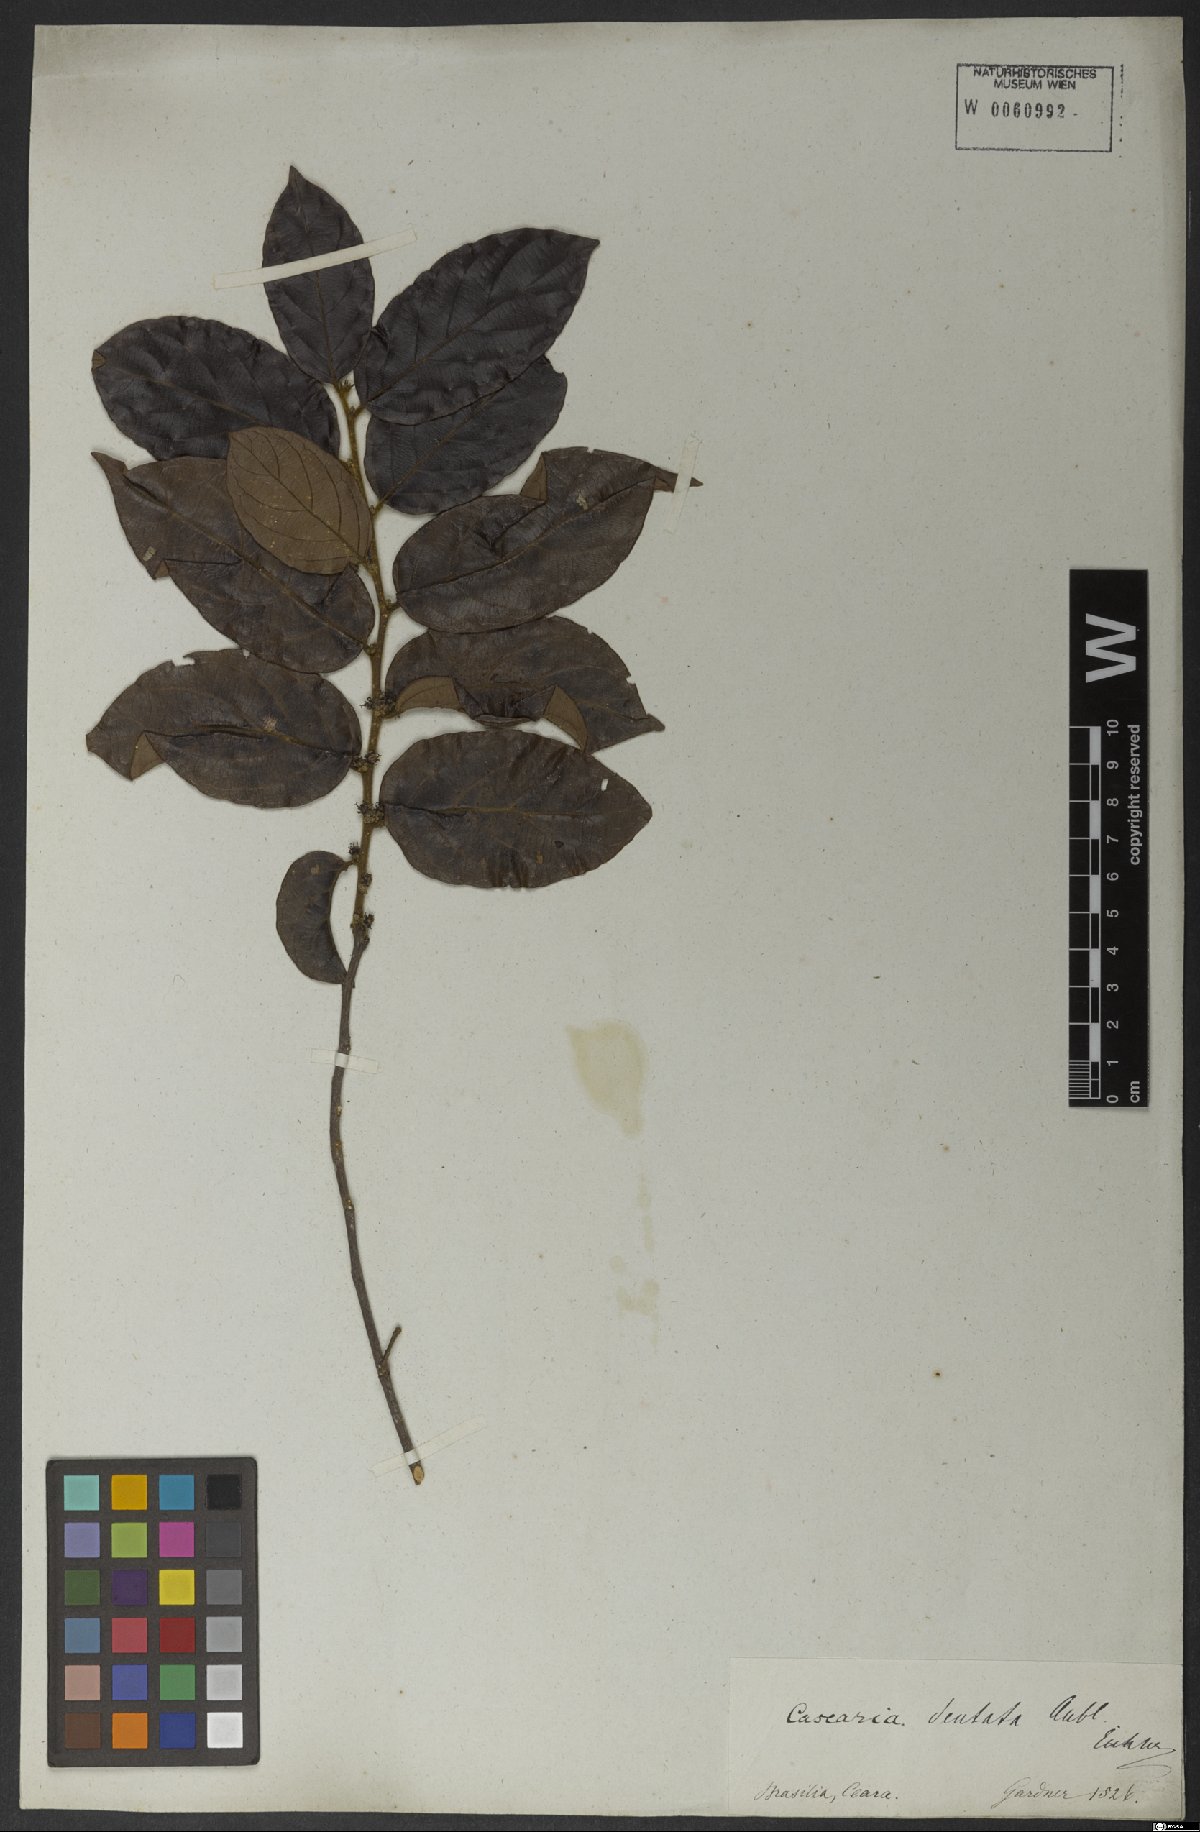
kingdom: Plantae
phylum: Tracheophyta
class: Magnoliopsida
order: Malpighiales
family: Salicaceae
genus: Piparea
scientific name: Piparea dentata
